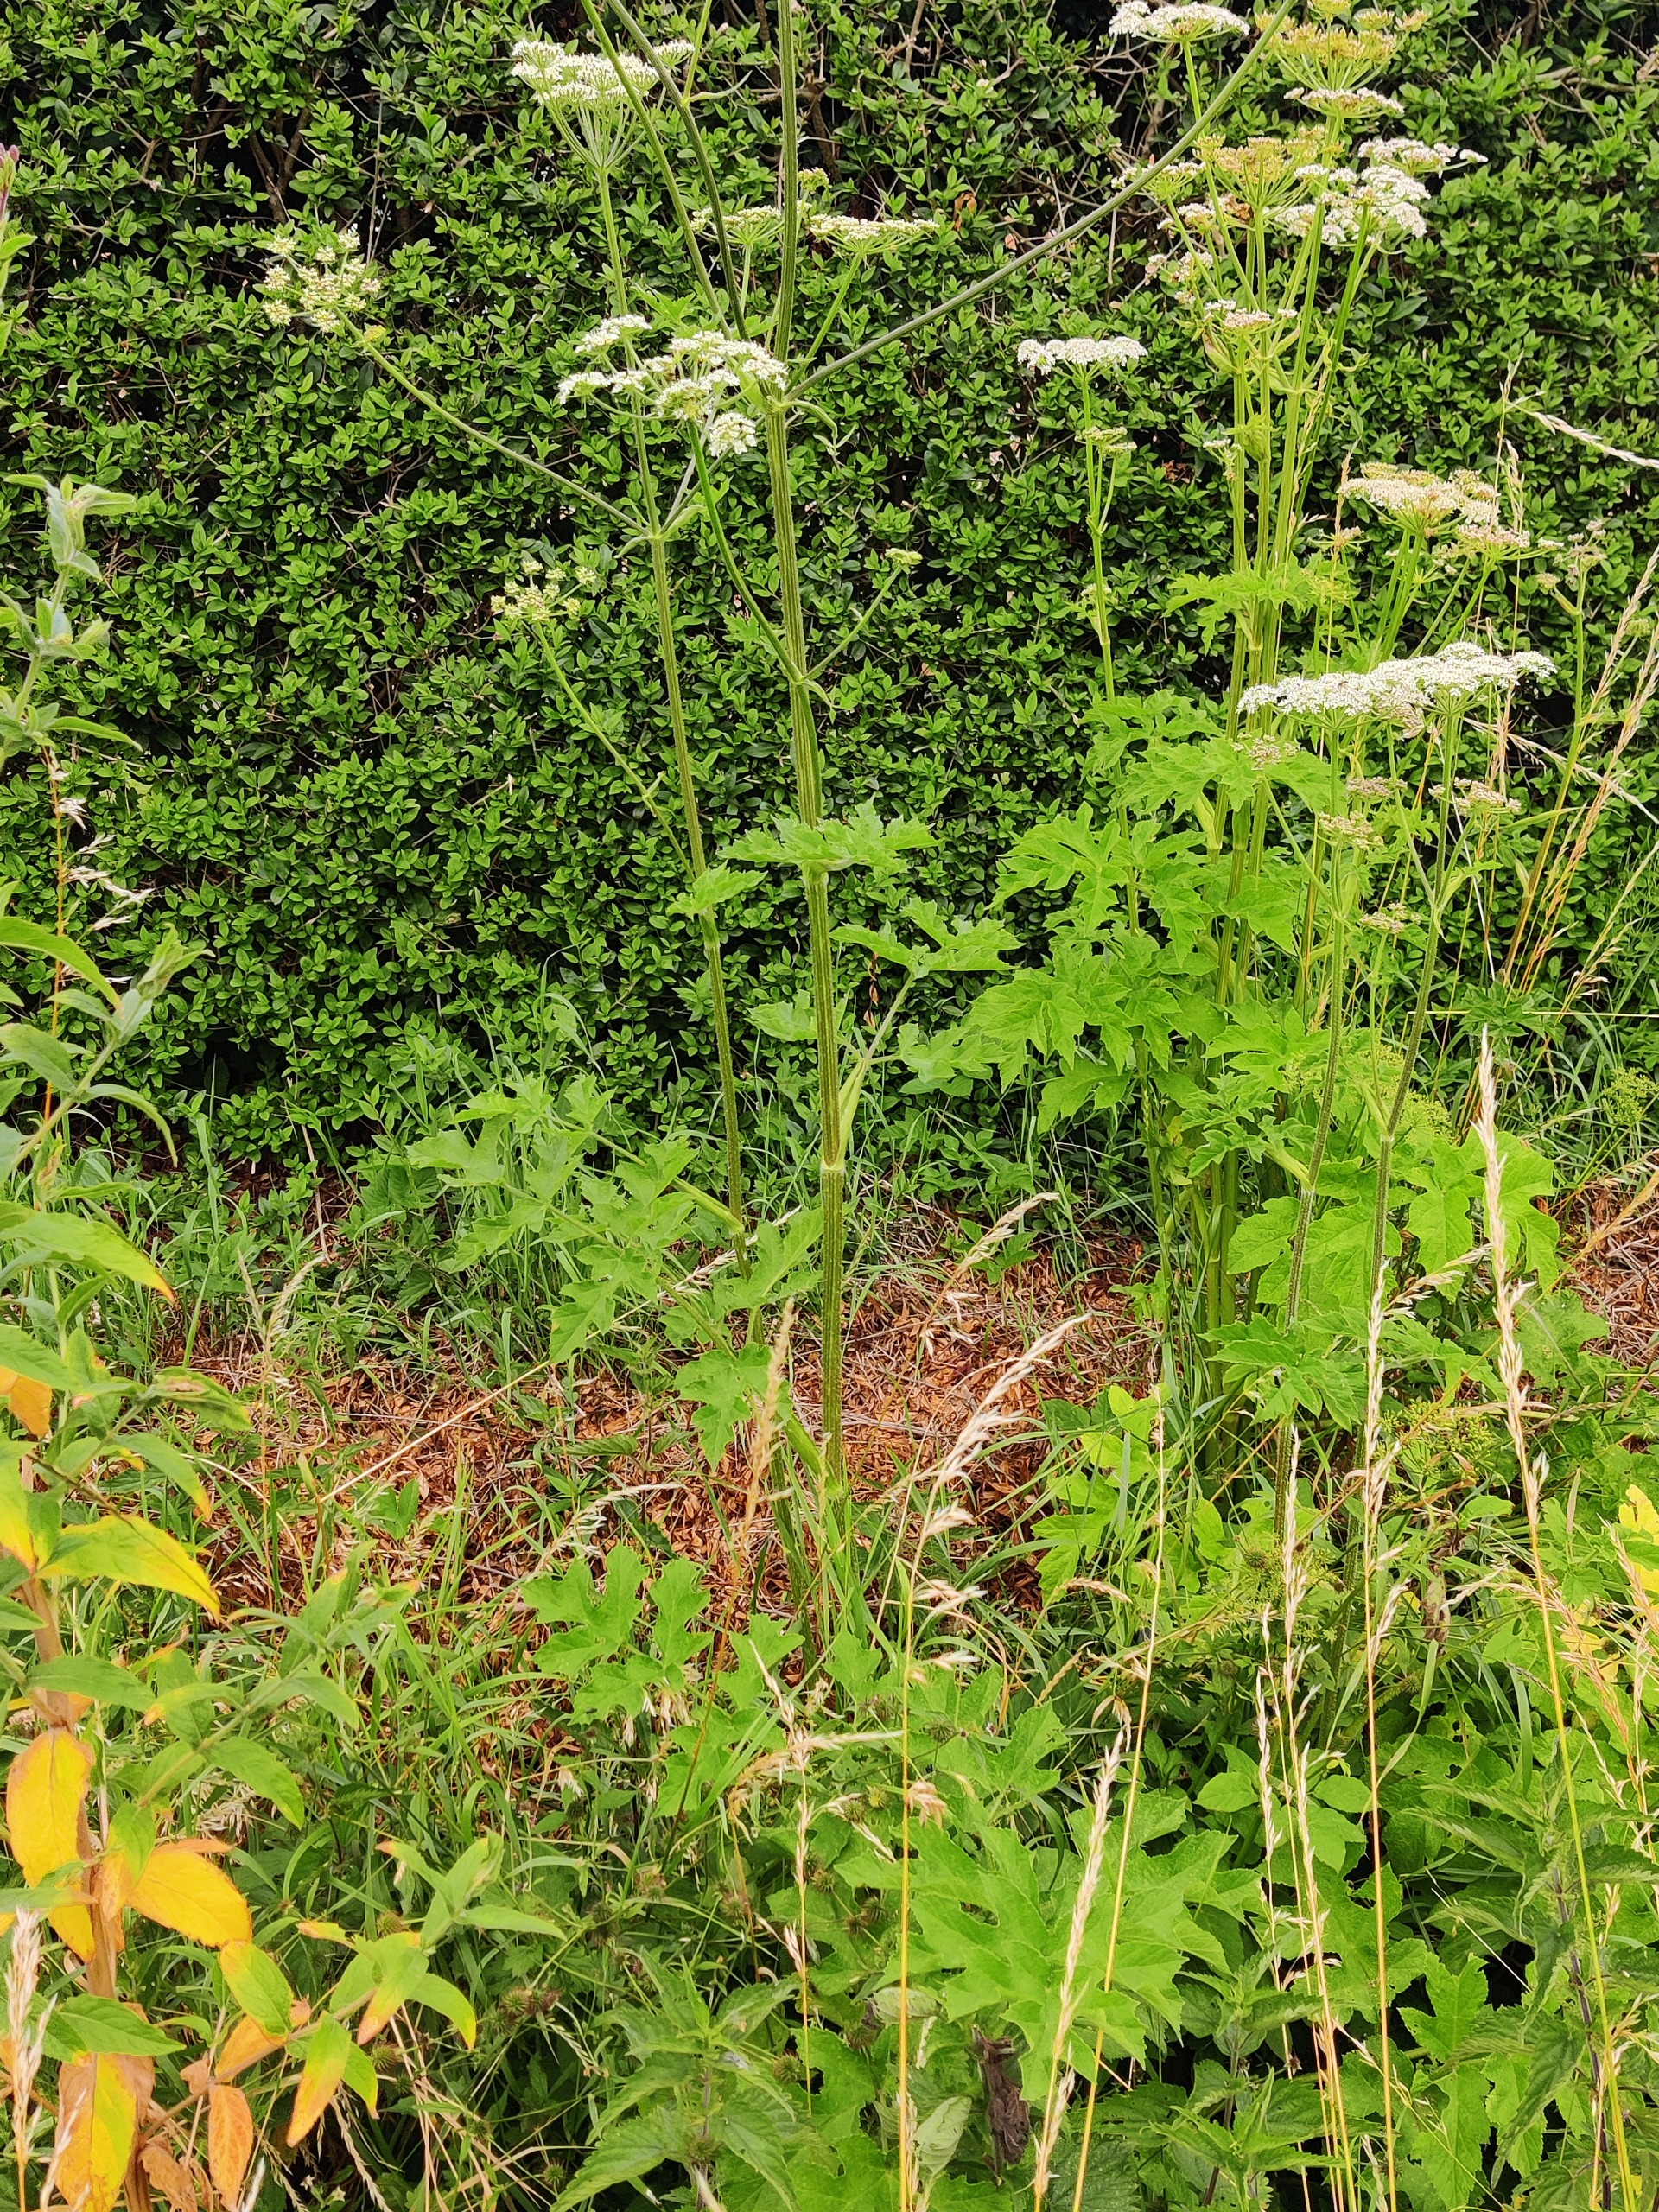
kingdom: Plantae
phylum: Tracheophyta
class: Magnoliopsida
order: Apiales
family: Apiaceae
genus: Heracleum
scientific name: Heracleum sphondylium
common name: Almindelig bjørneklo
